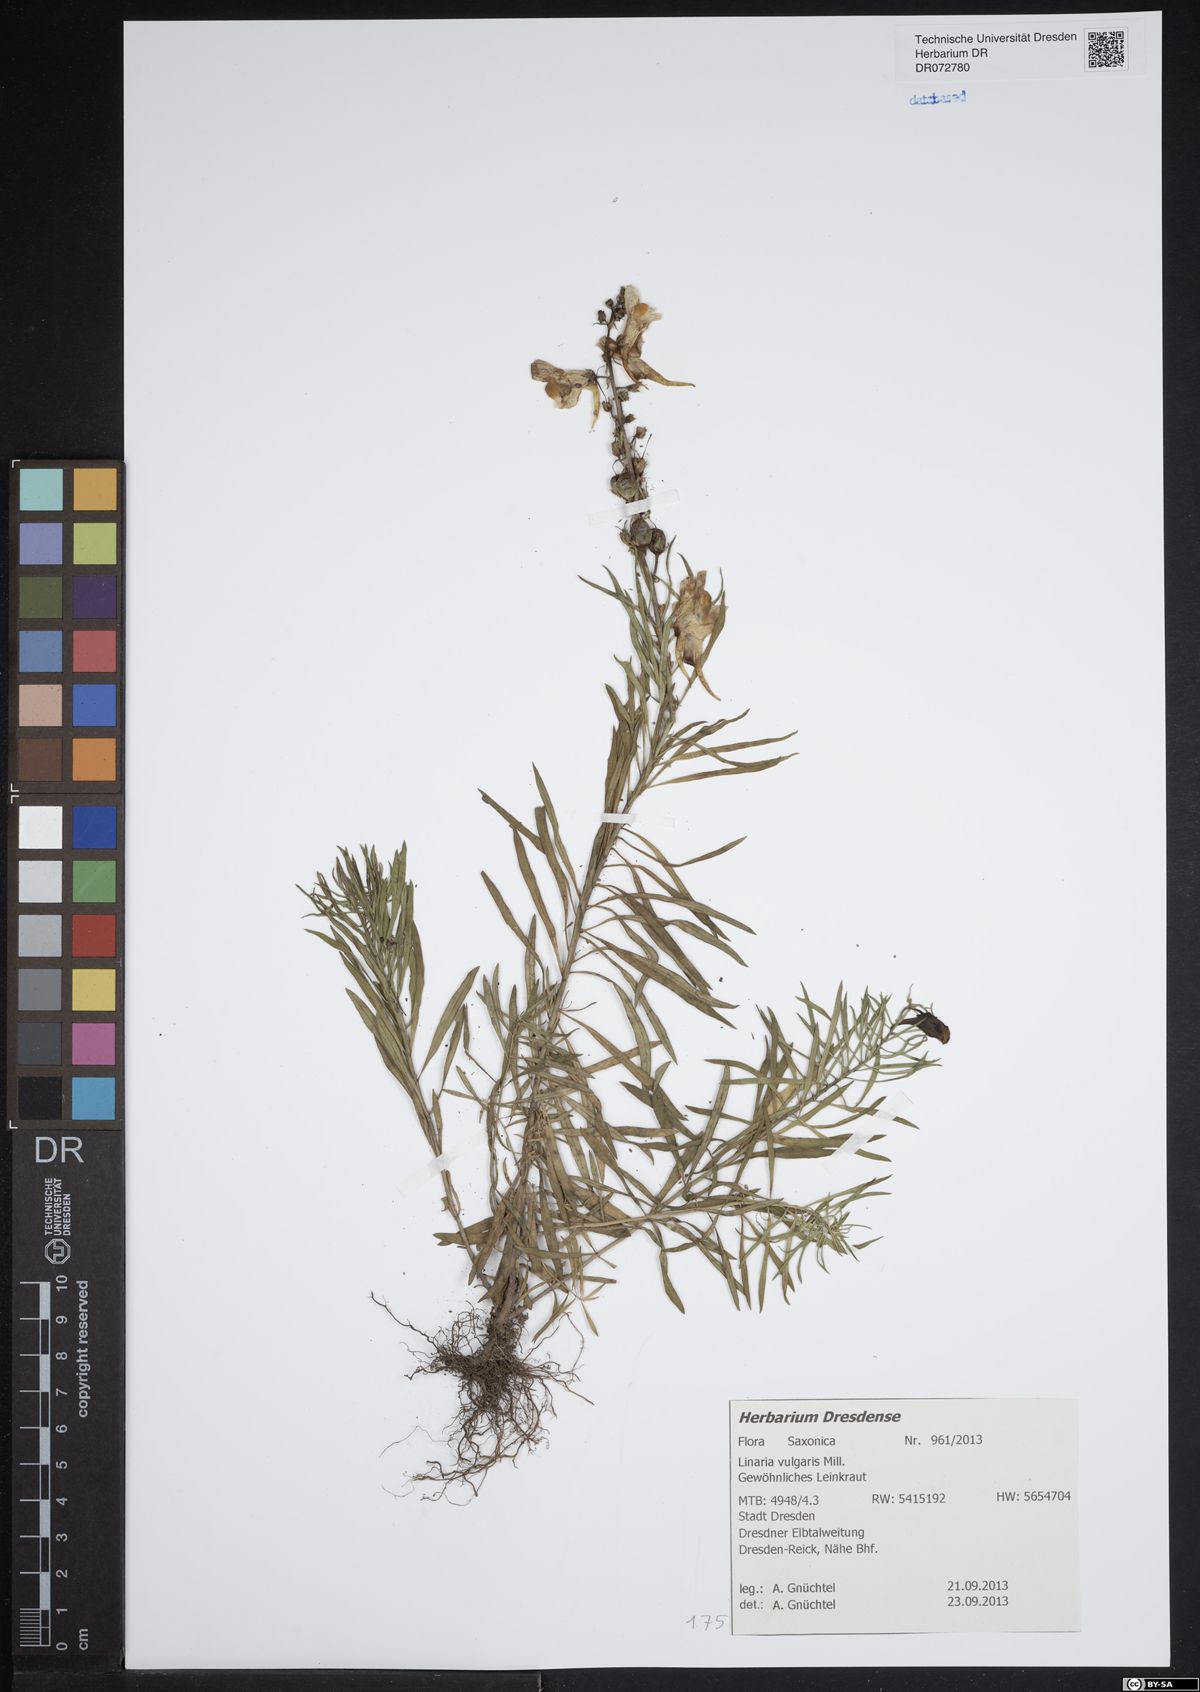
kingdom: Plantae
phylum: Tracheophyta
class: Magnoliopsida
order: Lamiales
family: Plantaginaceae
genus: Linaria
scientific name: Linaria vulgaris
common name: Butter and eggs
